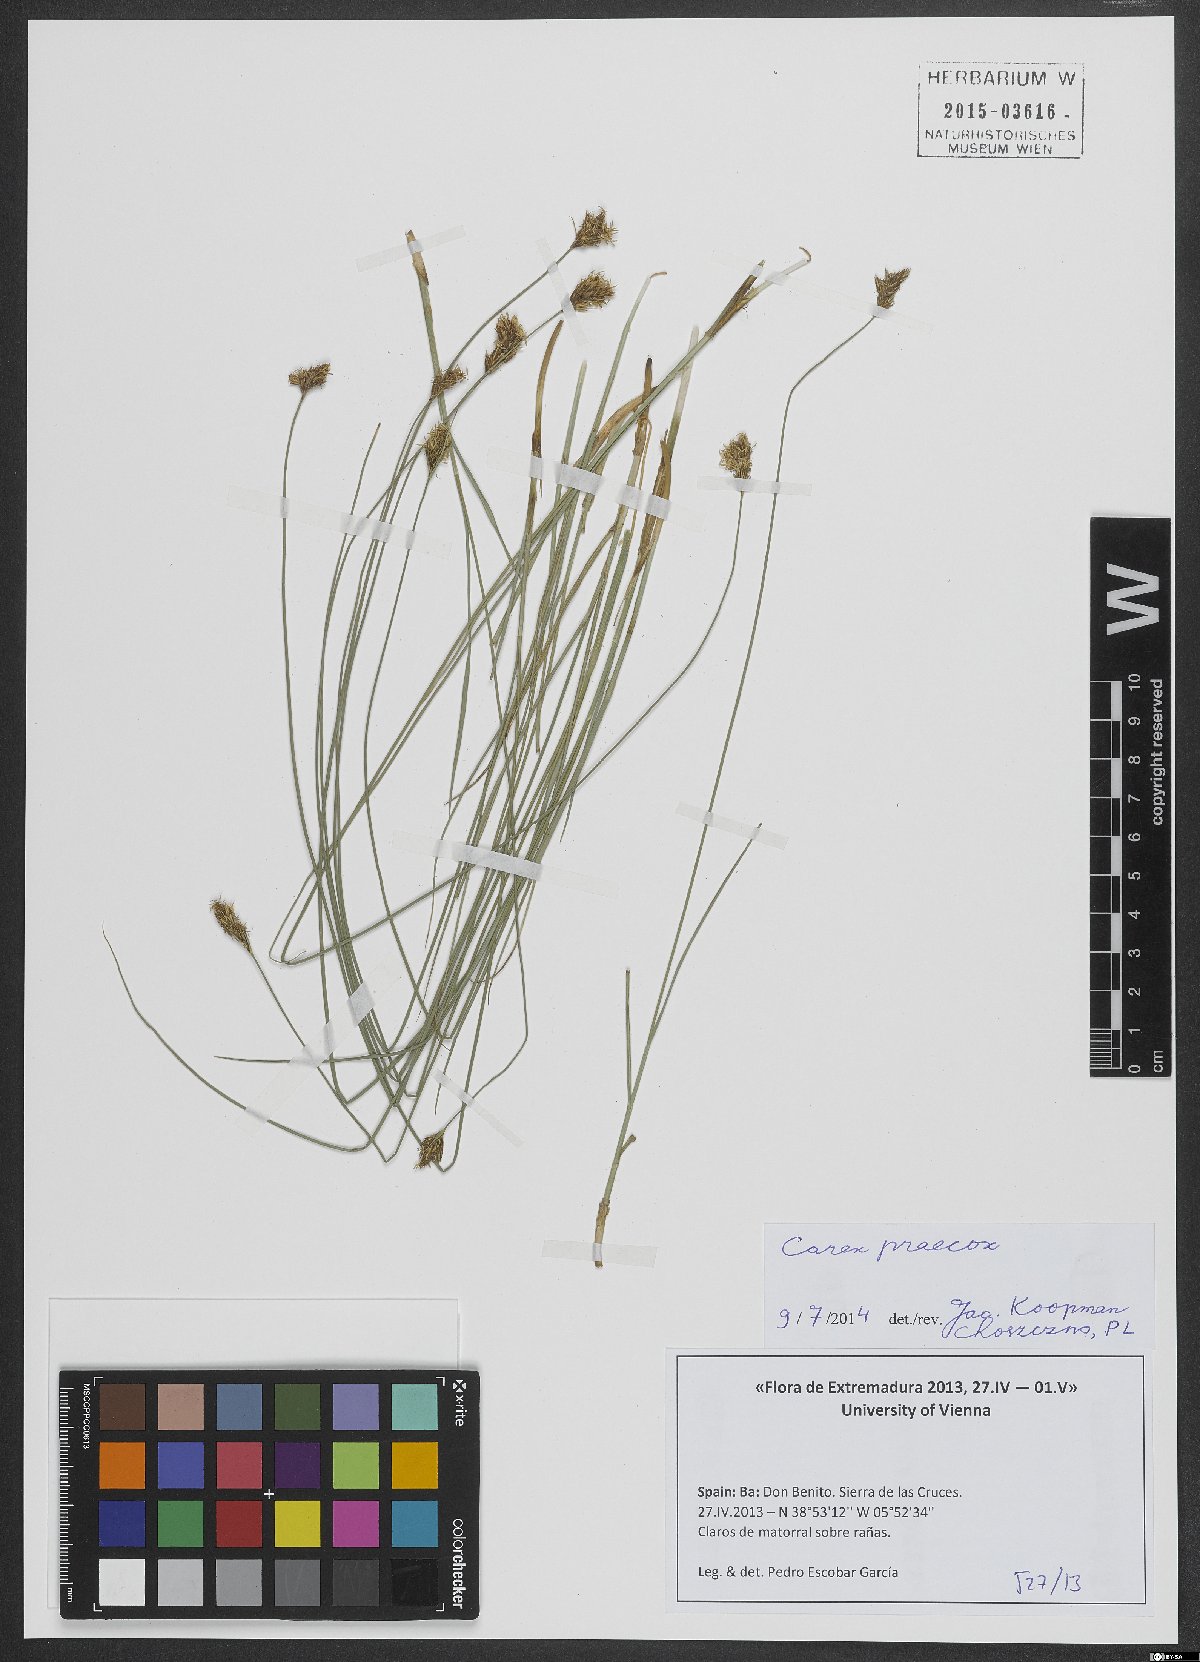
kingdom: Plantae
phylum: Tracheophyta
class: Liliopsida
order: Poales
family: Cyperaceae
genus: Carex
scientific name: Carex divisa
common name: Divided sedge
